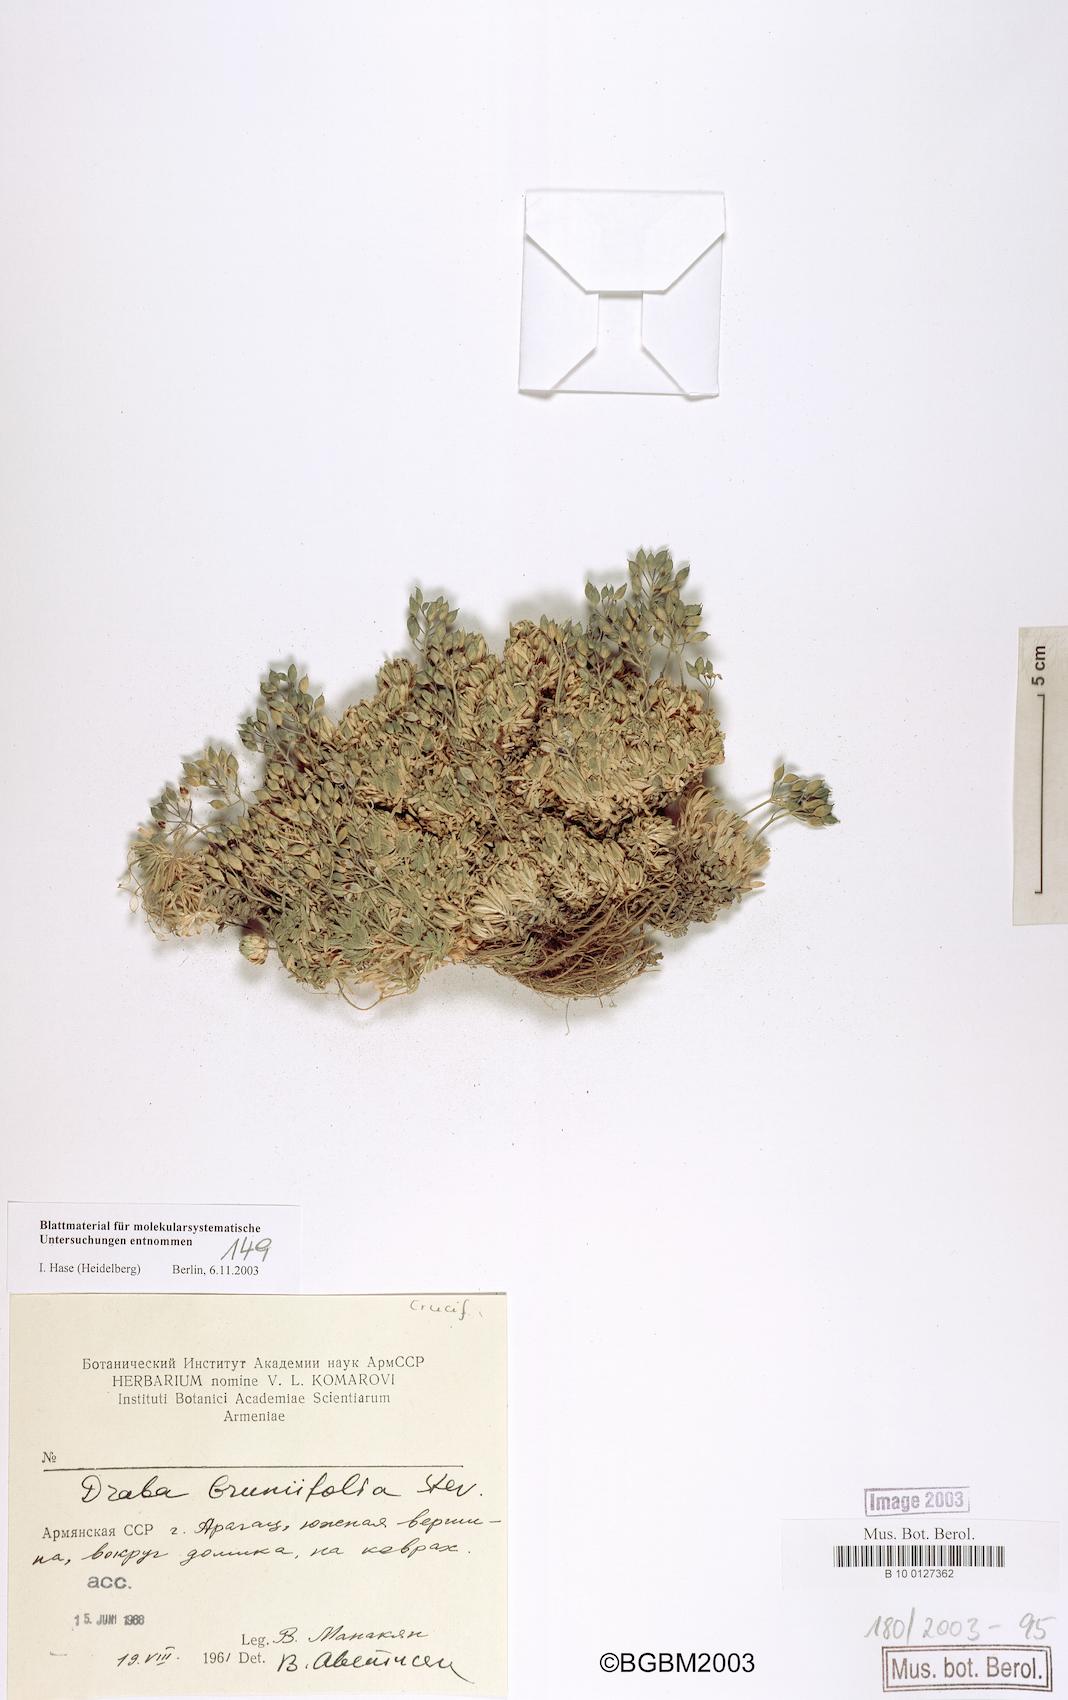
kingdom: Plantae
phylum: Tracheophyta
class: Magnoliopsida
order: Brassicales
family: Brassicaceae
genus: Draba
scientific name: Draba bruniifolia
